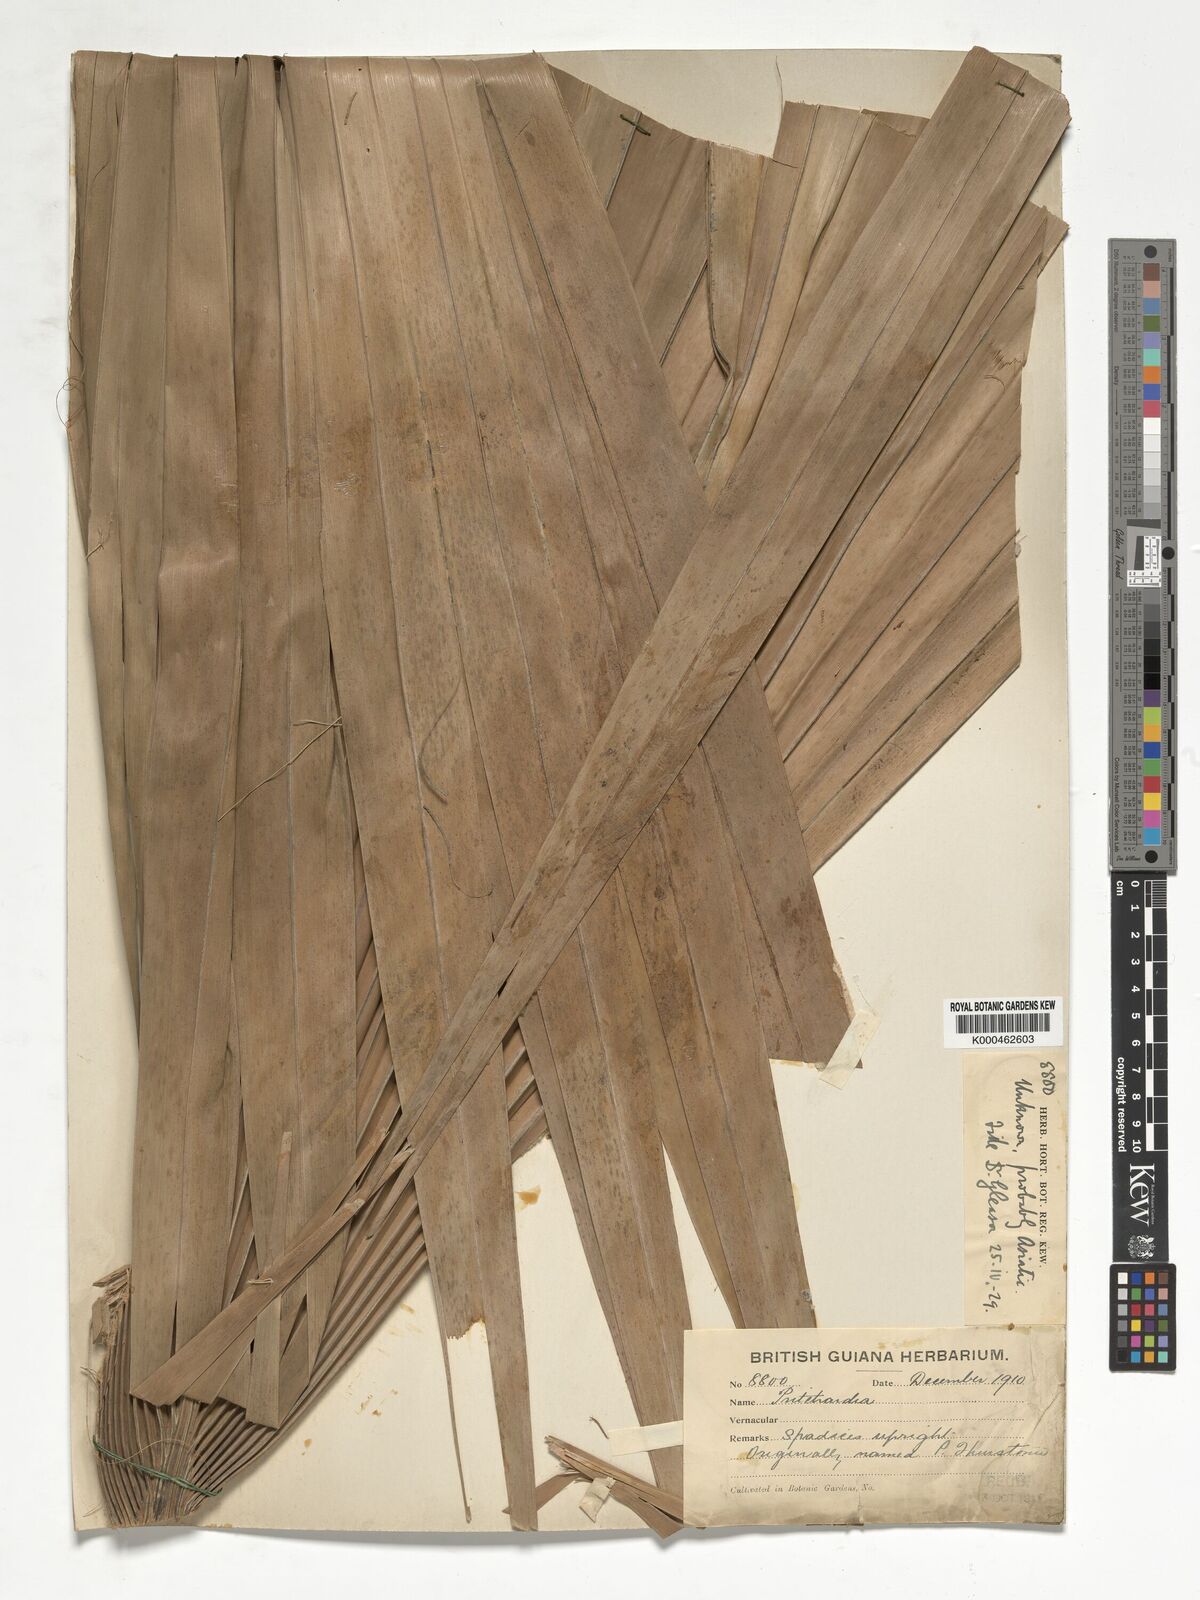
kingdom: Plantae
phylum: Tracheophyta
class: Liliopsida
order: Arecales
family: Arecaceae
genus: Pritchardia
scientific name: Pritchardia
